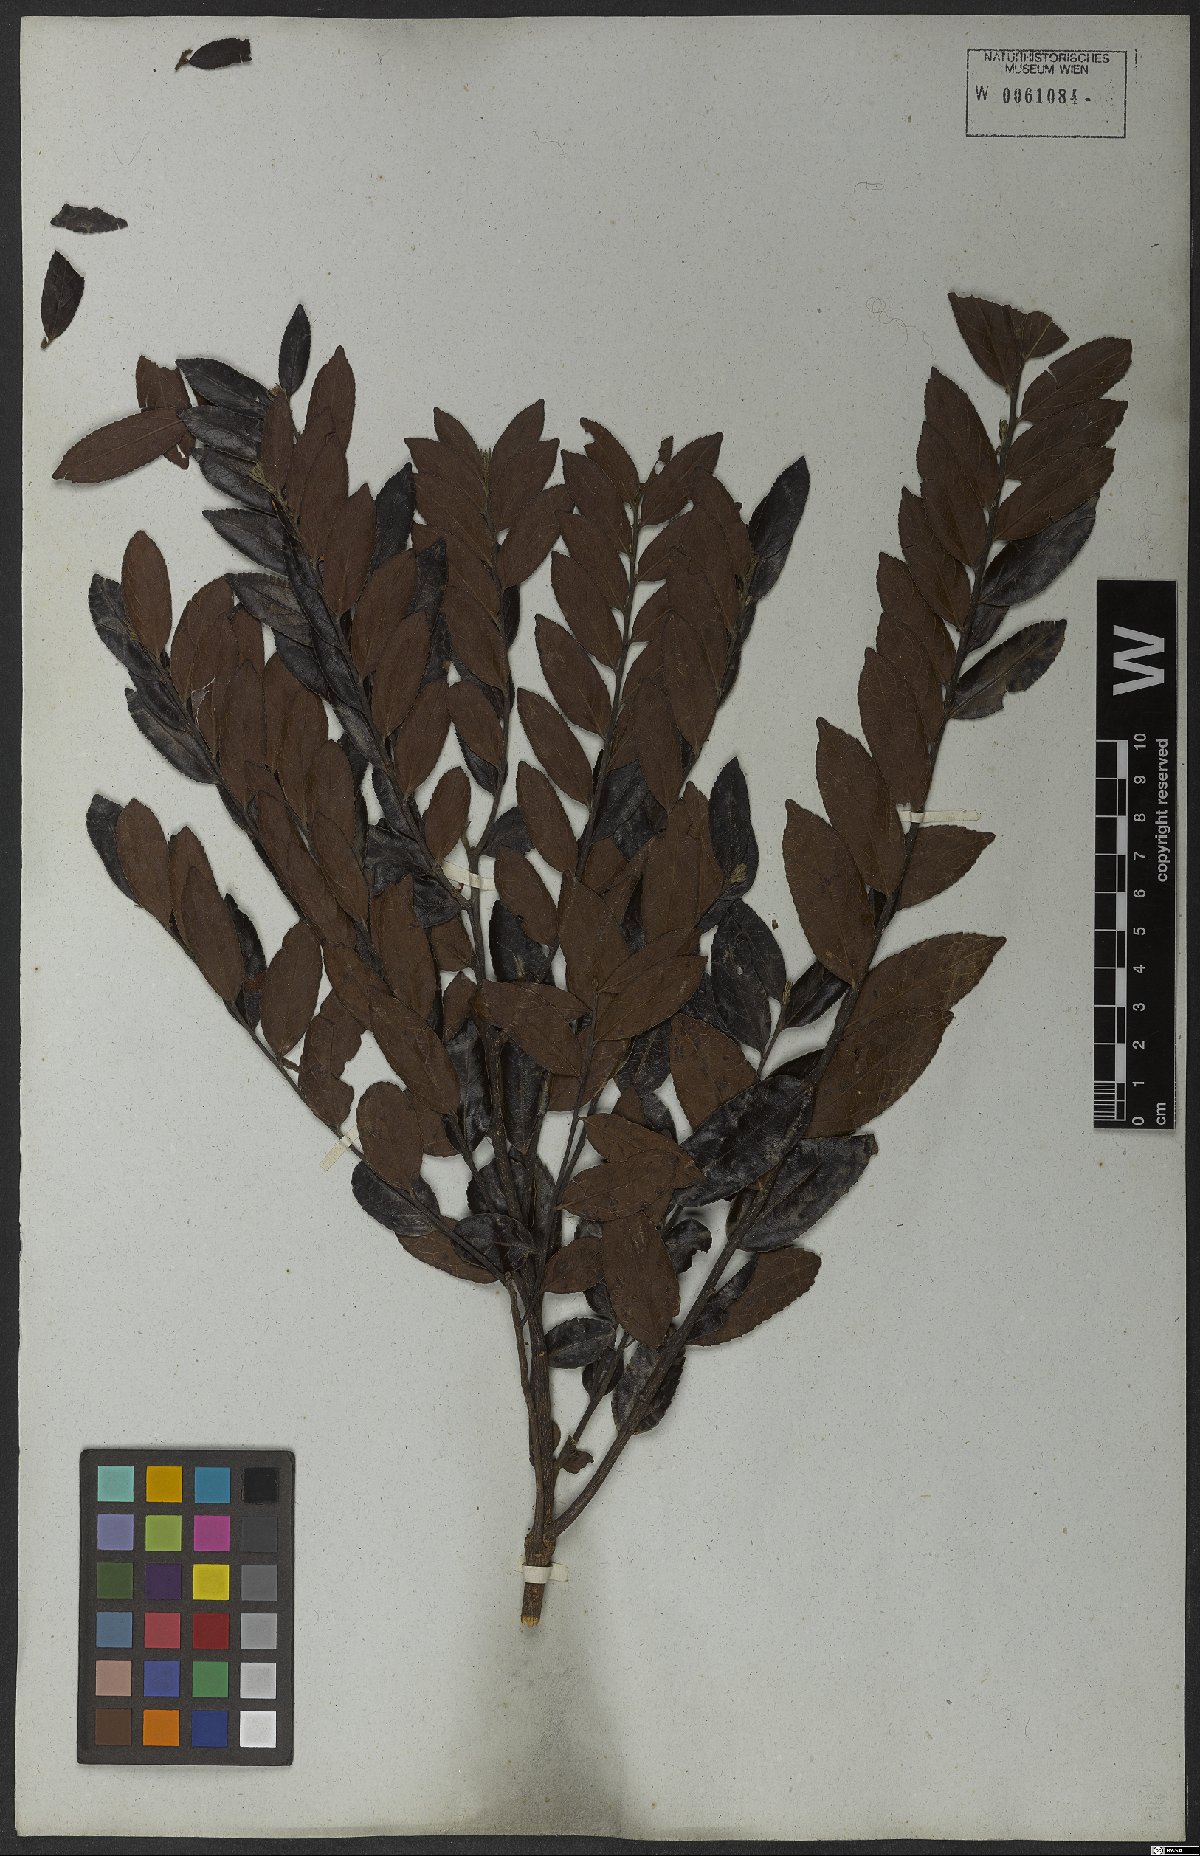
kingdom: Plantae
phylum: Tracheophyta
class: Magnoliopsida
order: Malpighiales
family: Salicaceae
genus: Casearia
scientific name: Casearia rufescens
